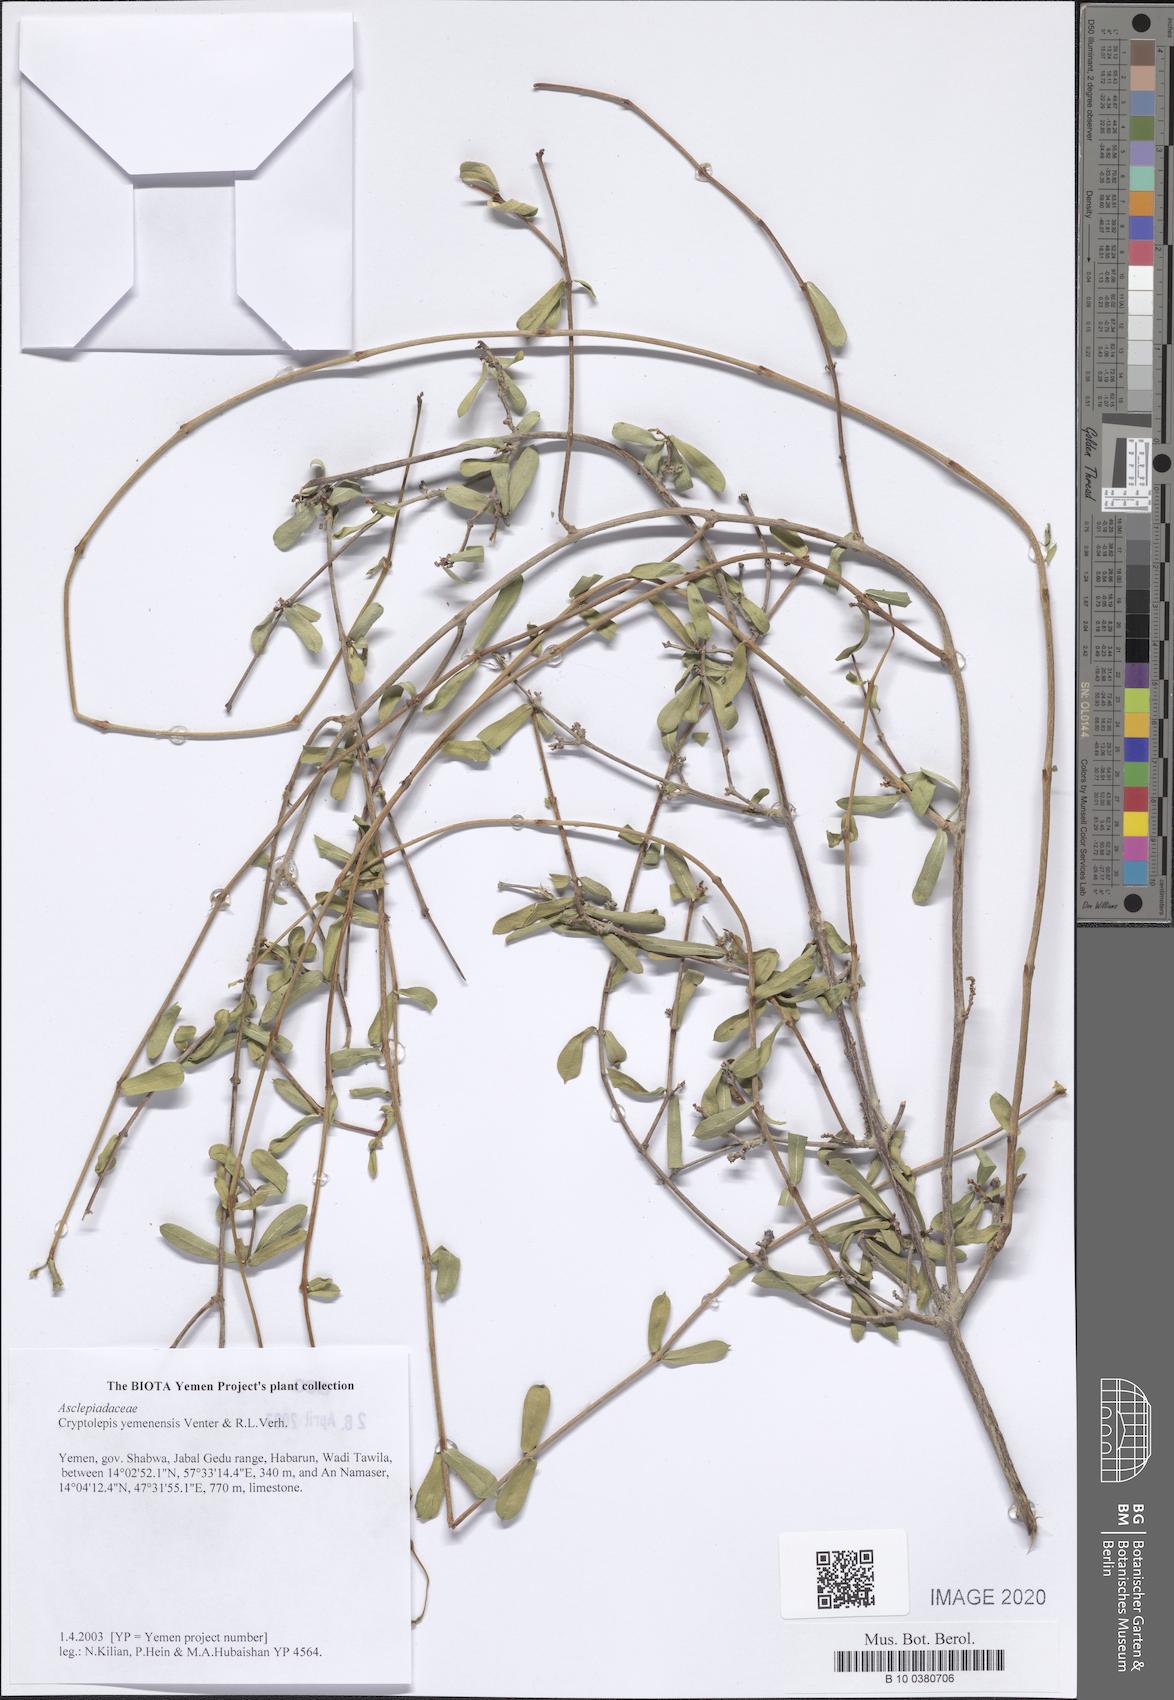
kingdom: Plantae
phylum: Tracheophyta
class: Magnoliopsida
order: Gentianales
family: Apocynaceae
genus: Cryptolepis
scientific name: Cryptolepis yemenensis
